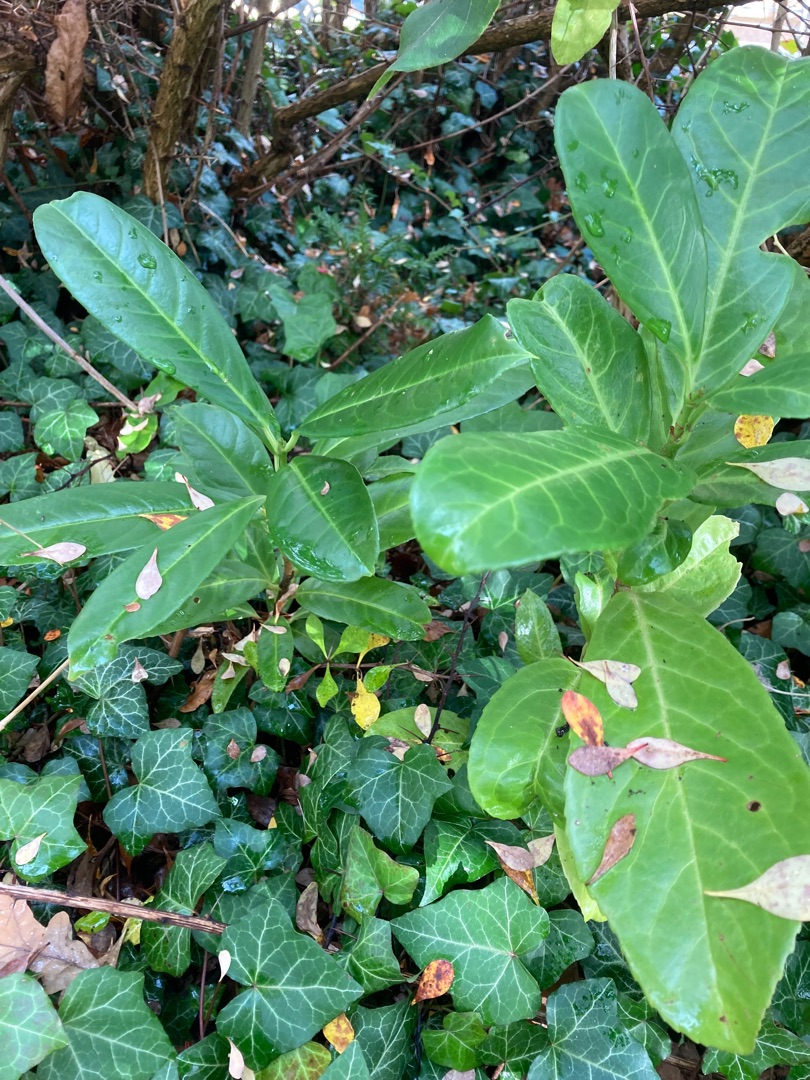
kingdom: Plantae
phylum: Tracheophyta
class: Magnoliopsida
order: Rosales
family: Rosaceae
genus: Prunus
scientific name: Prunus laurocerasus
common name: Laurbærkirsebær
